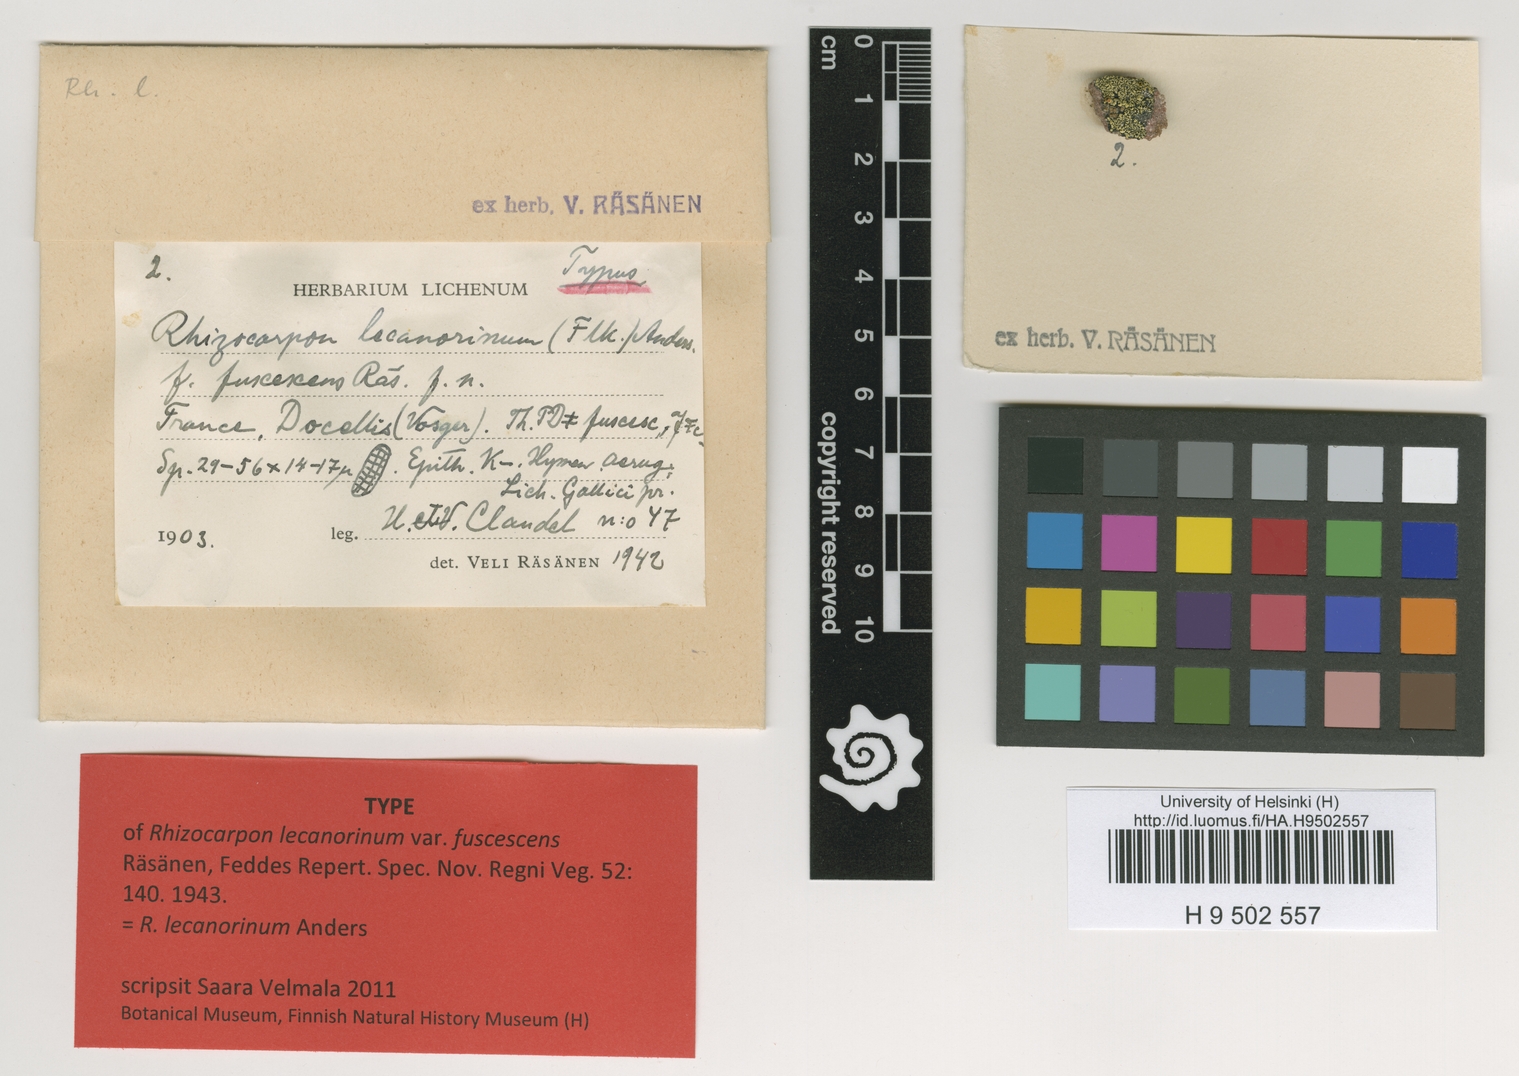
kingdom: Fungi
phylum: Ascomycota
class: Lecanoromycetes
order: Rhizocarpales
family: Rhizocarpaceae
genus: Rhizocarpon
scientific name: Rhizocarpon lecanorinum
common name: Crescent map lichen
